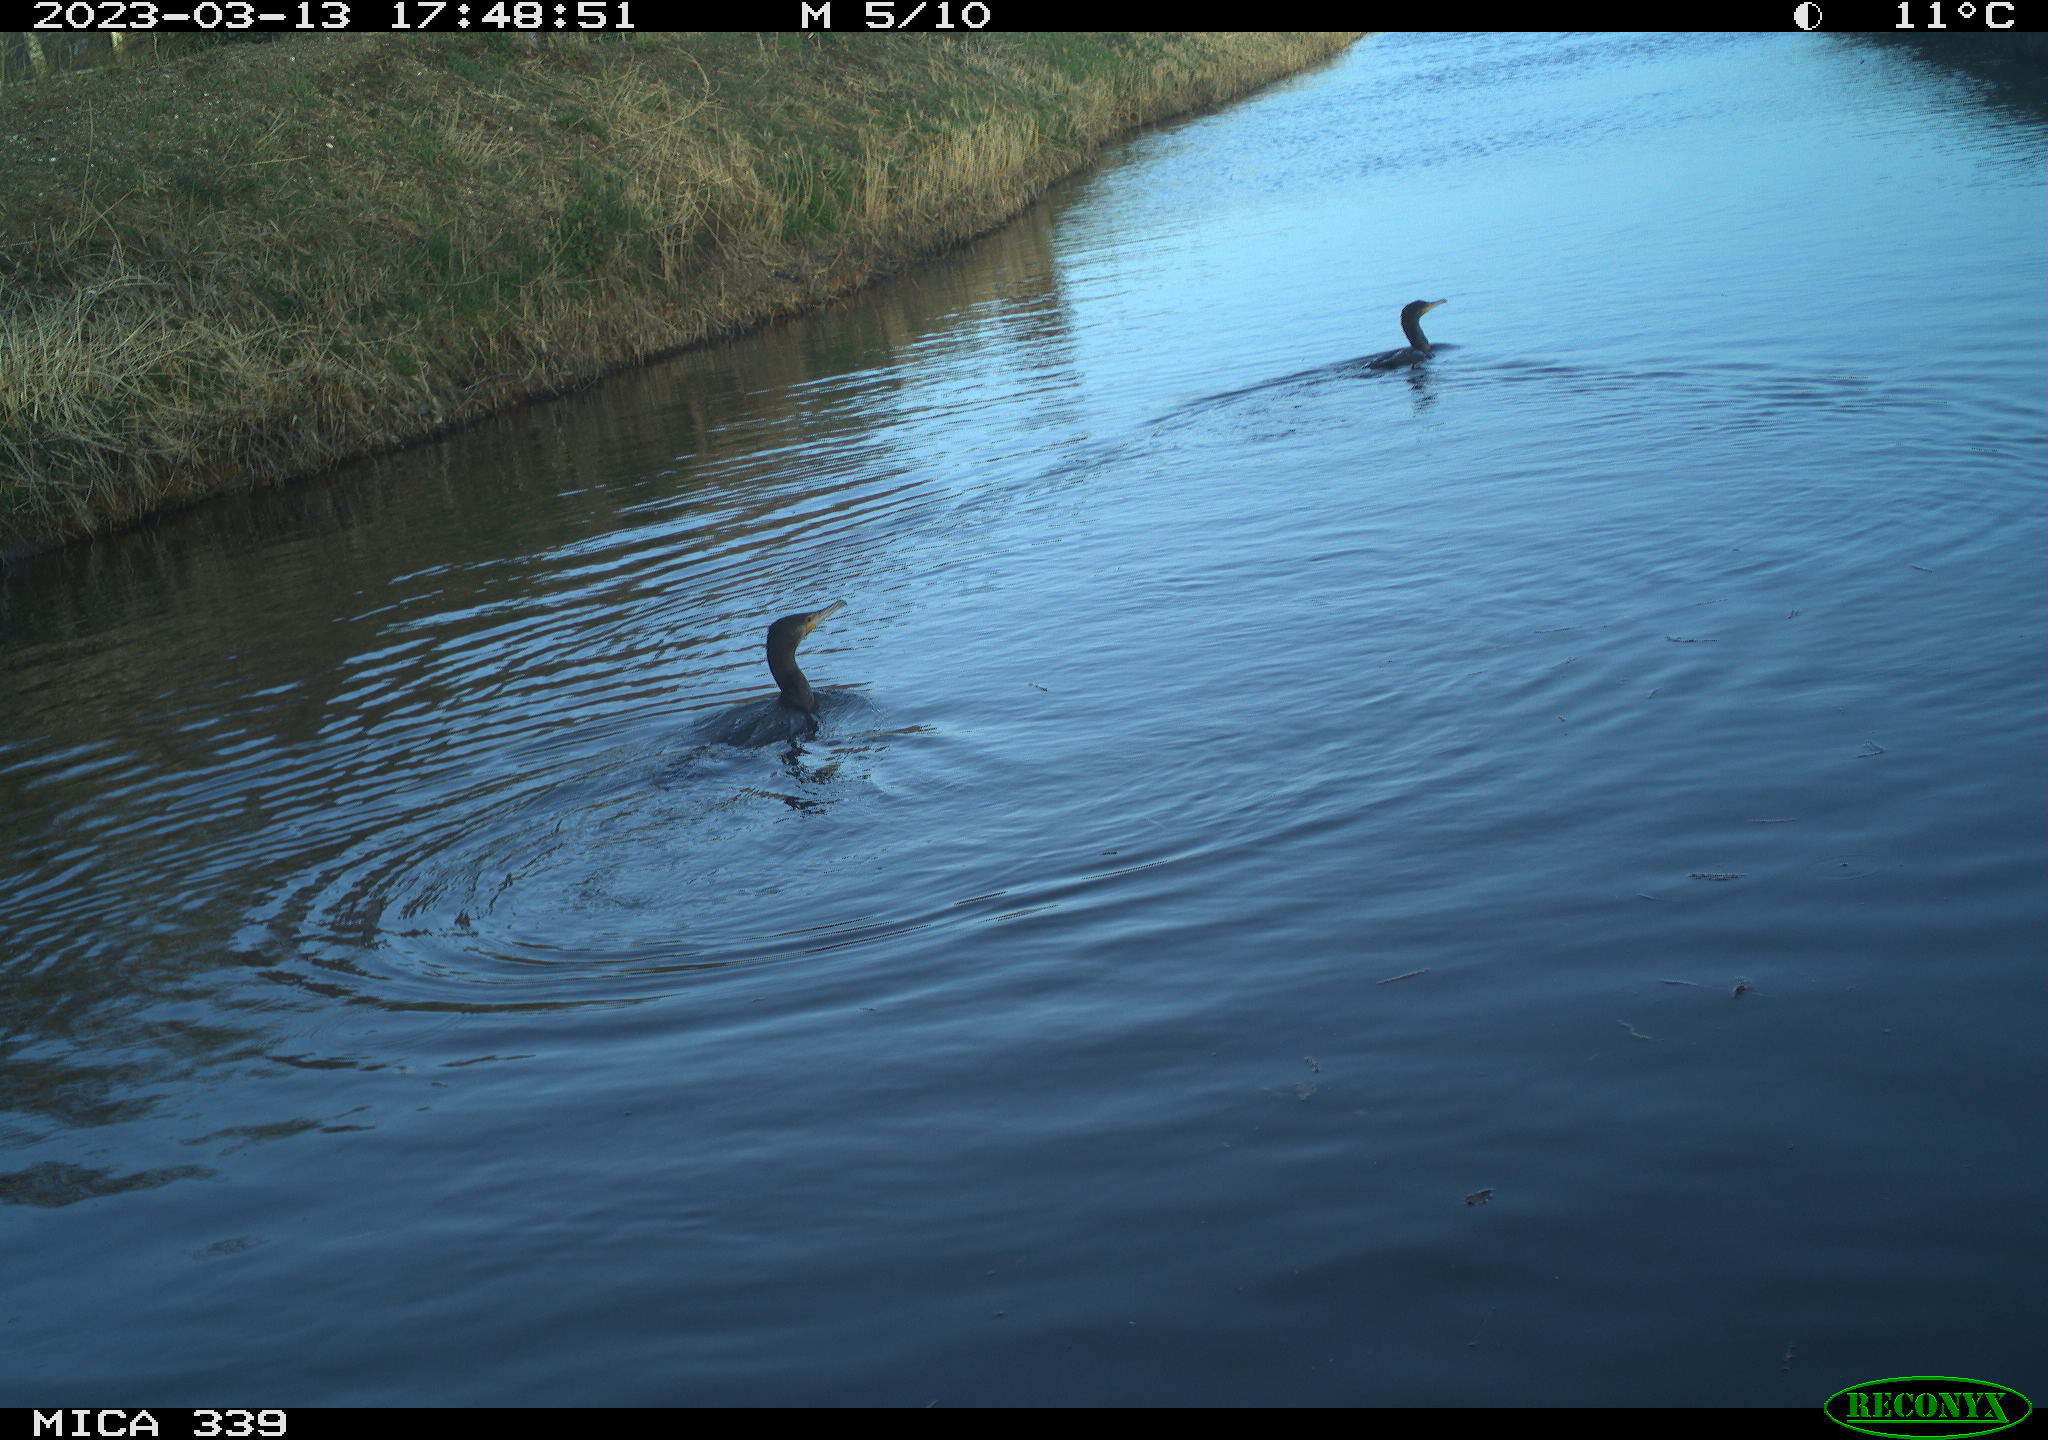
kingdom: Animalia
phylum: Chordata
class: Aves
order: Suliformes
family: Phalacrocoracidae
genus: Phalacrocorax
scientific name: Phalacrocorax carbo
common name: Great cormorant
